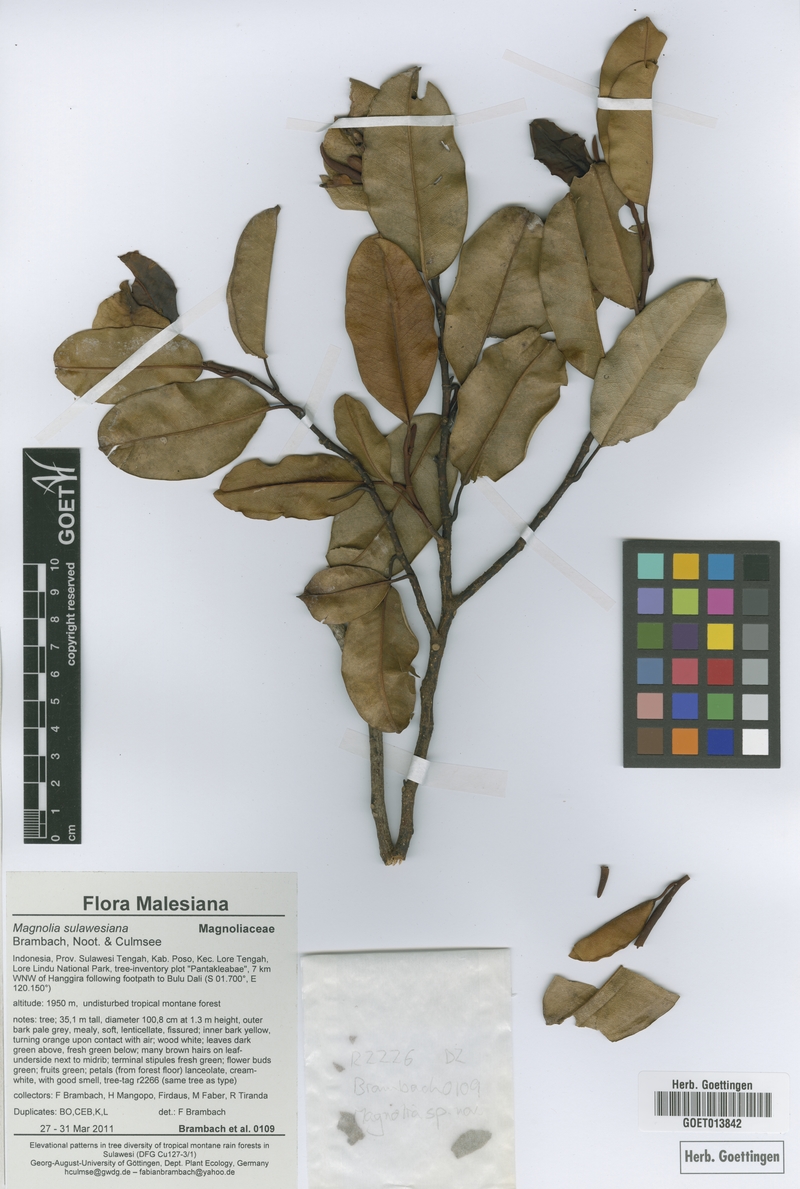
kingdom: Plantae
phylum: Tracheophyta
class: Magnoliopsida
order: Magnoliales
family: Magnoliaceae
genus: Magnolia
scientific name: Magnolia sulawesiana
